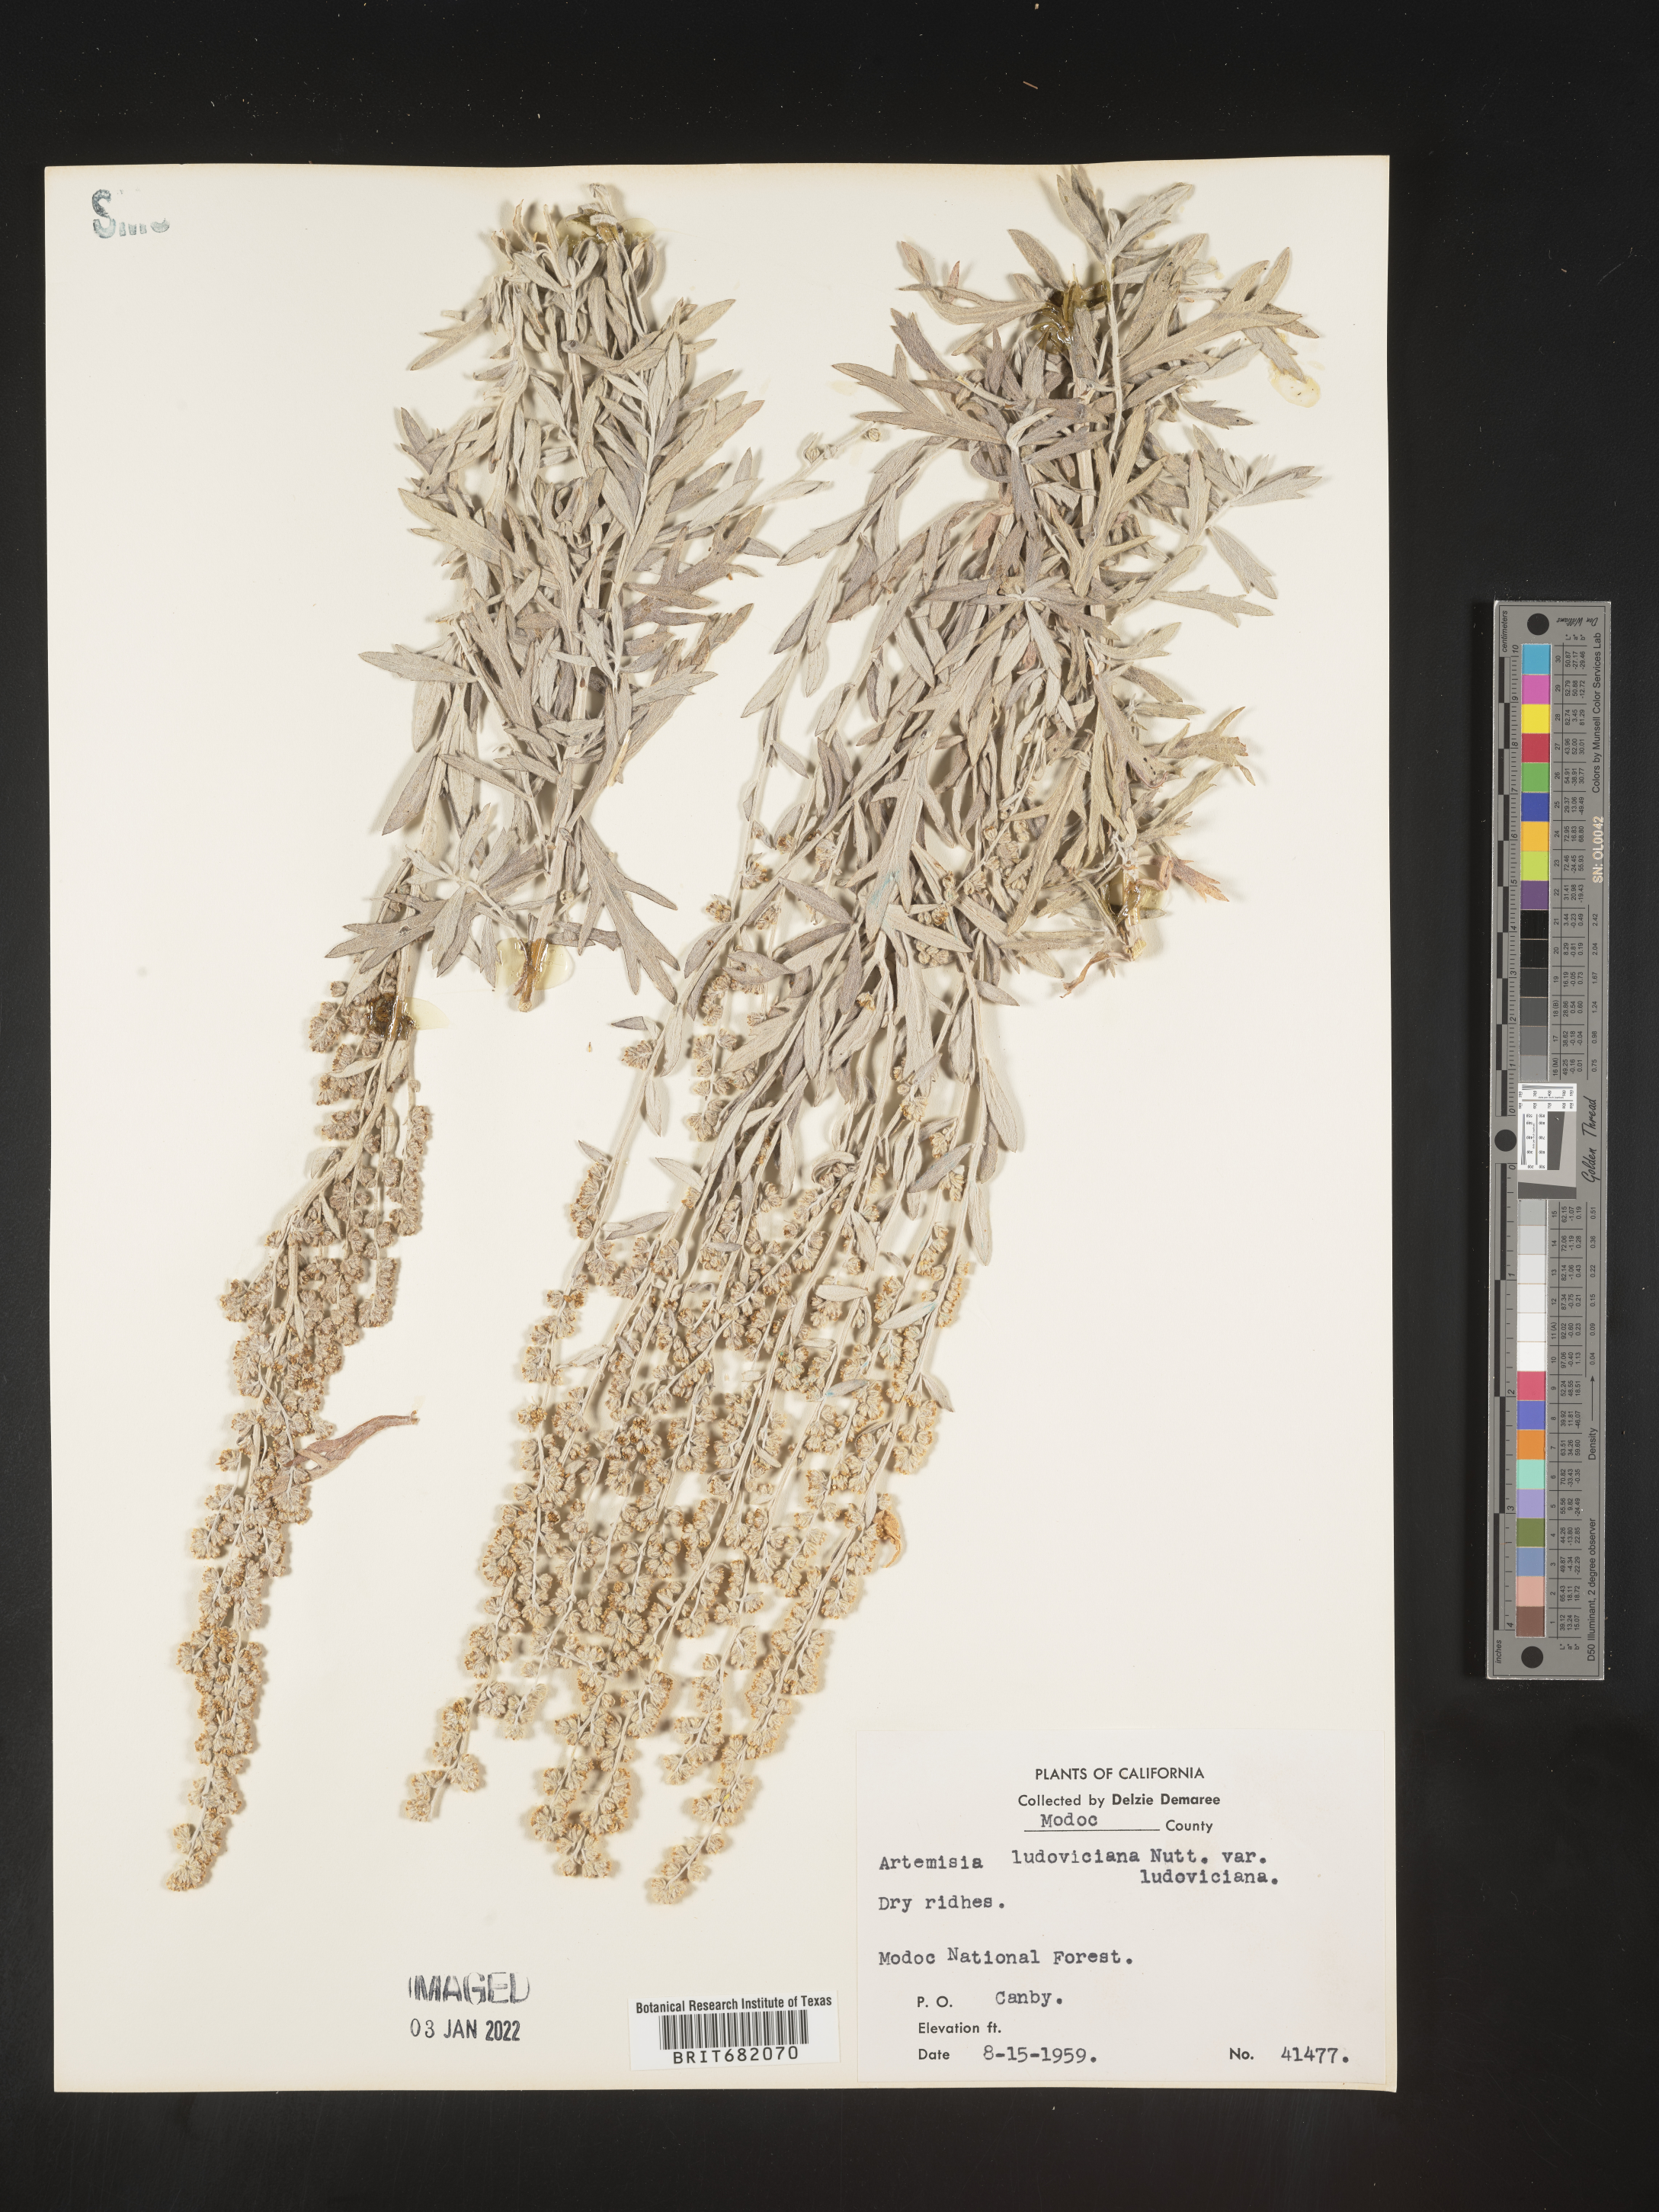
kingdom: Plantae
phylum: Tracheophyta
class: Magnoliopsida
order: Asterales
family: Asteraceae
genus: Artemisia
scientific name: Artemisia ludoviciana
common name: Western mugwort
